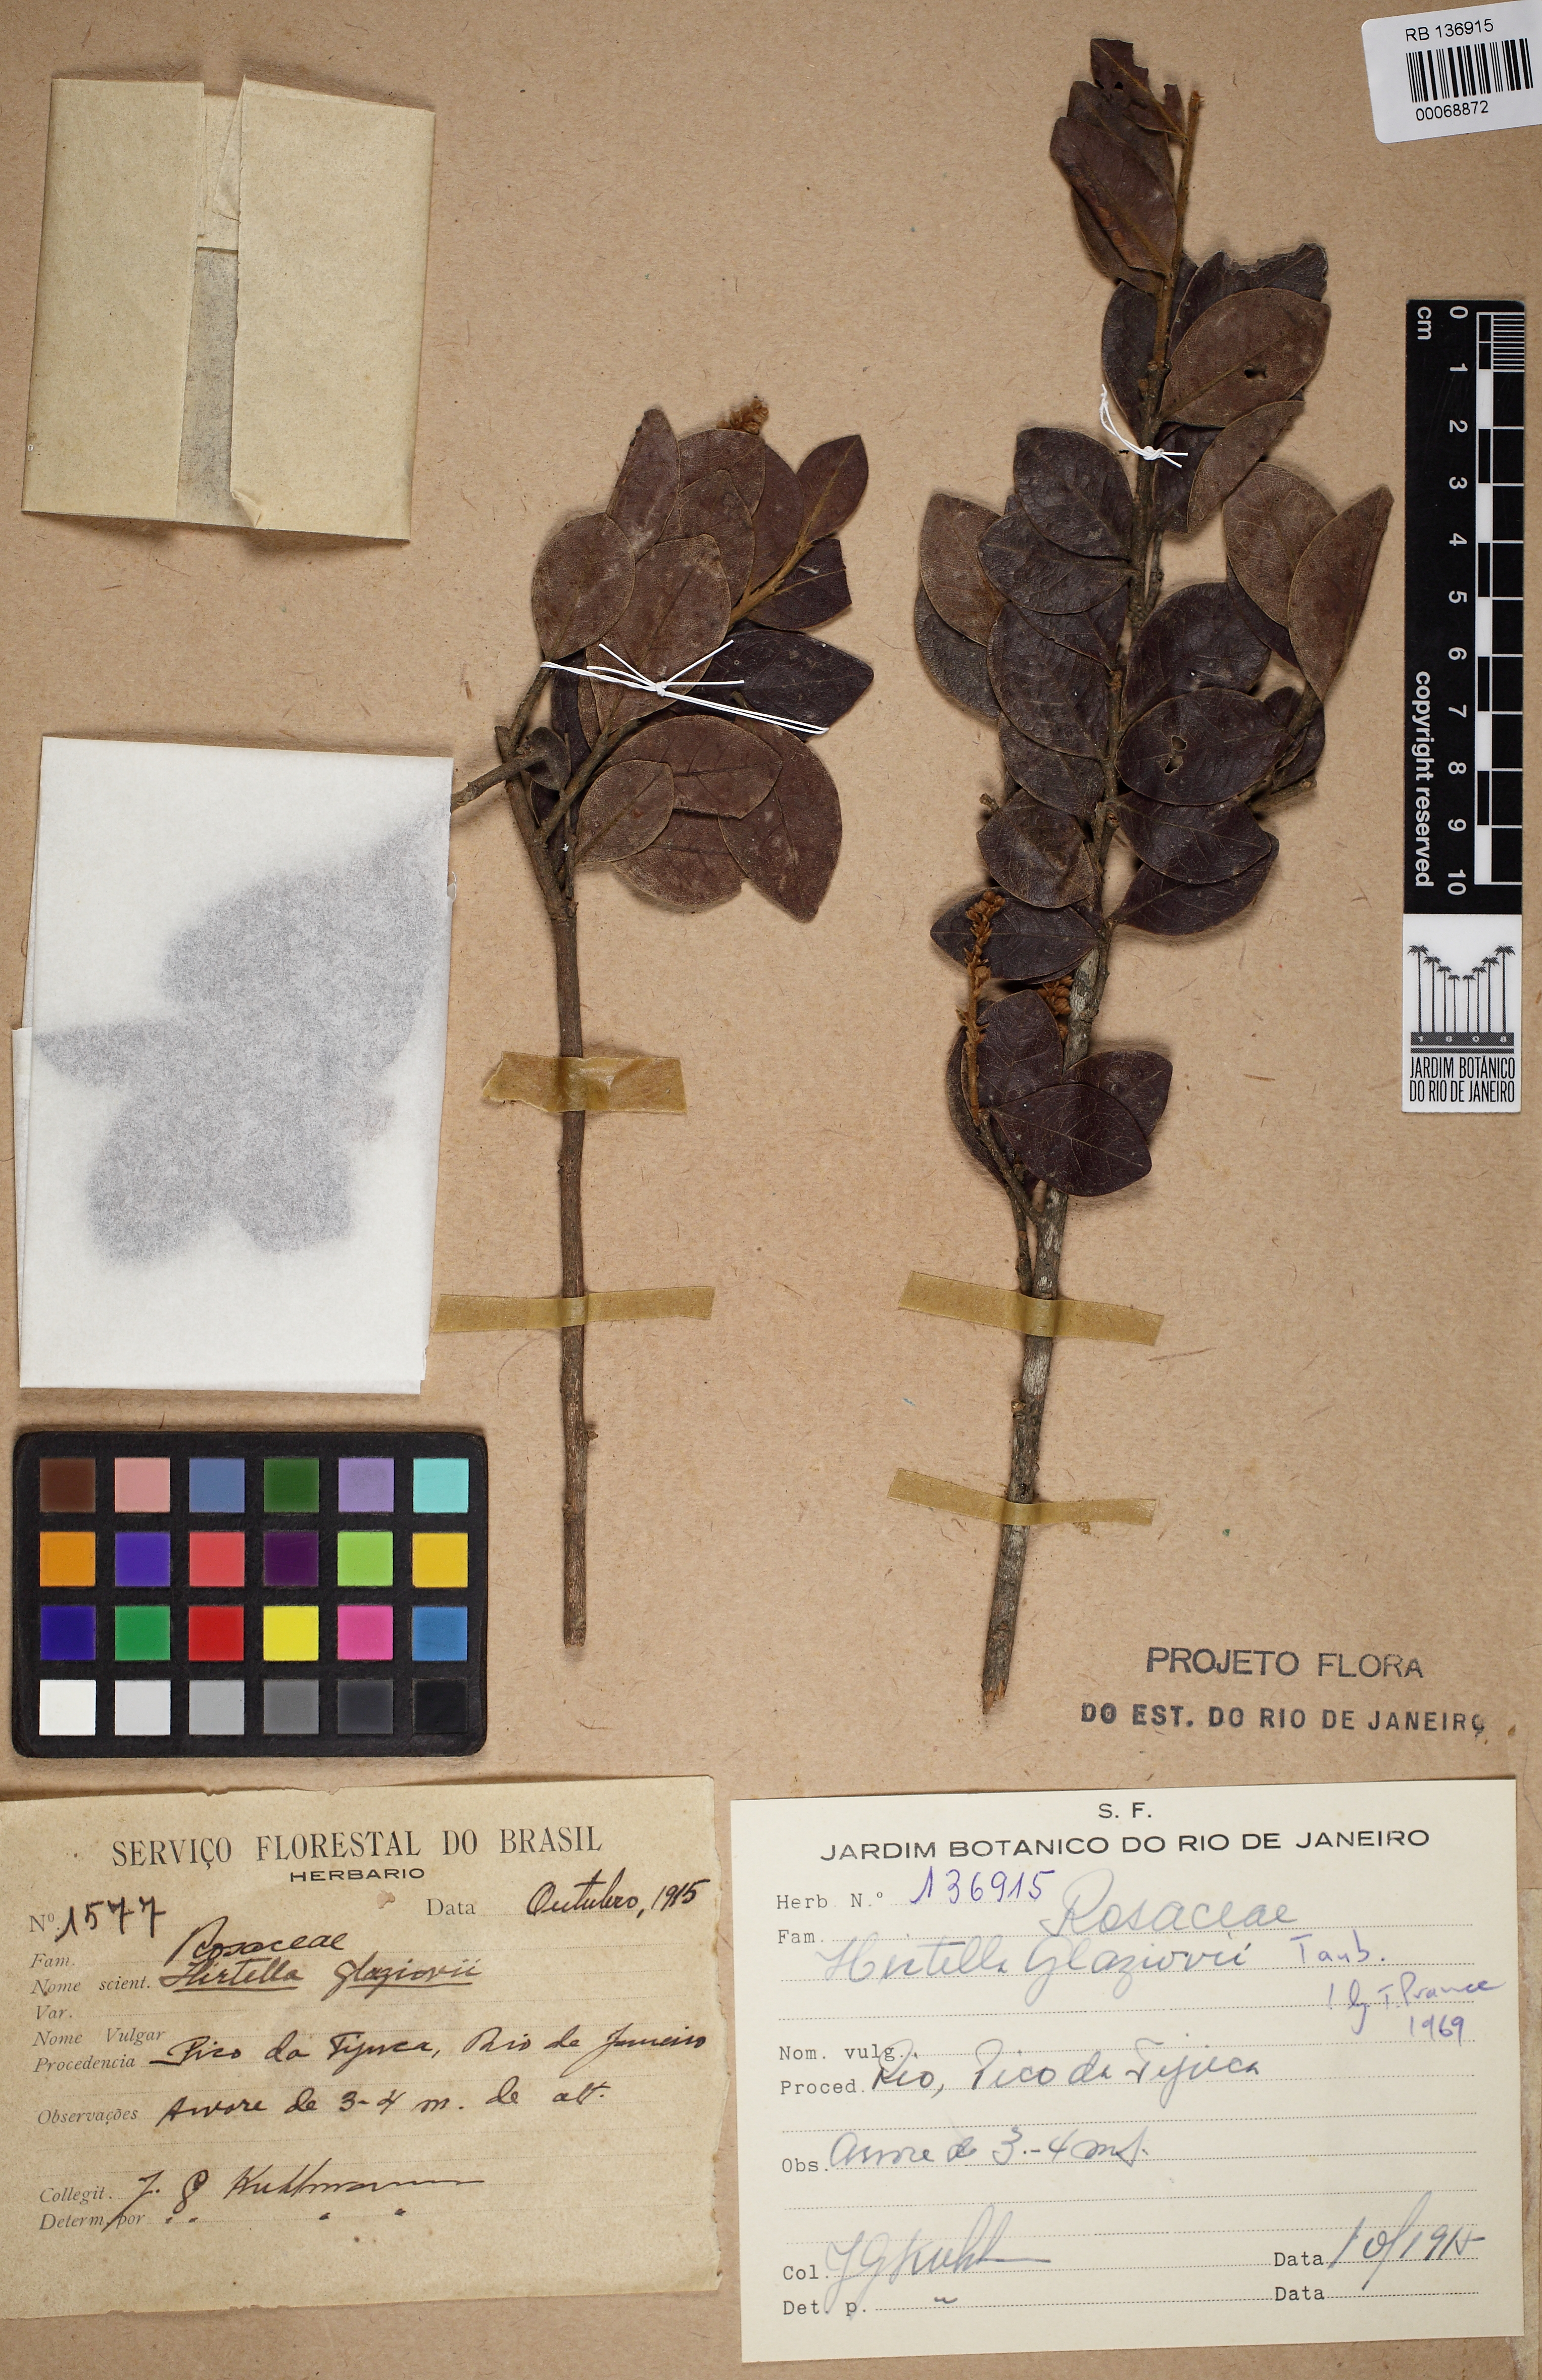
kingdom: Plantae
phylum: Tracheophyta
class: Magnoliopsida
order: Malpighiales
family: Chrysobalanaceae
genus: Hirtella
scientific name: Hirtella glaziovii
